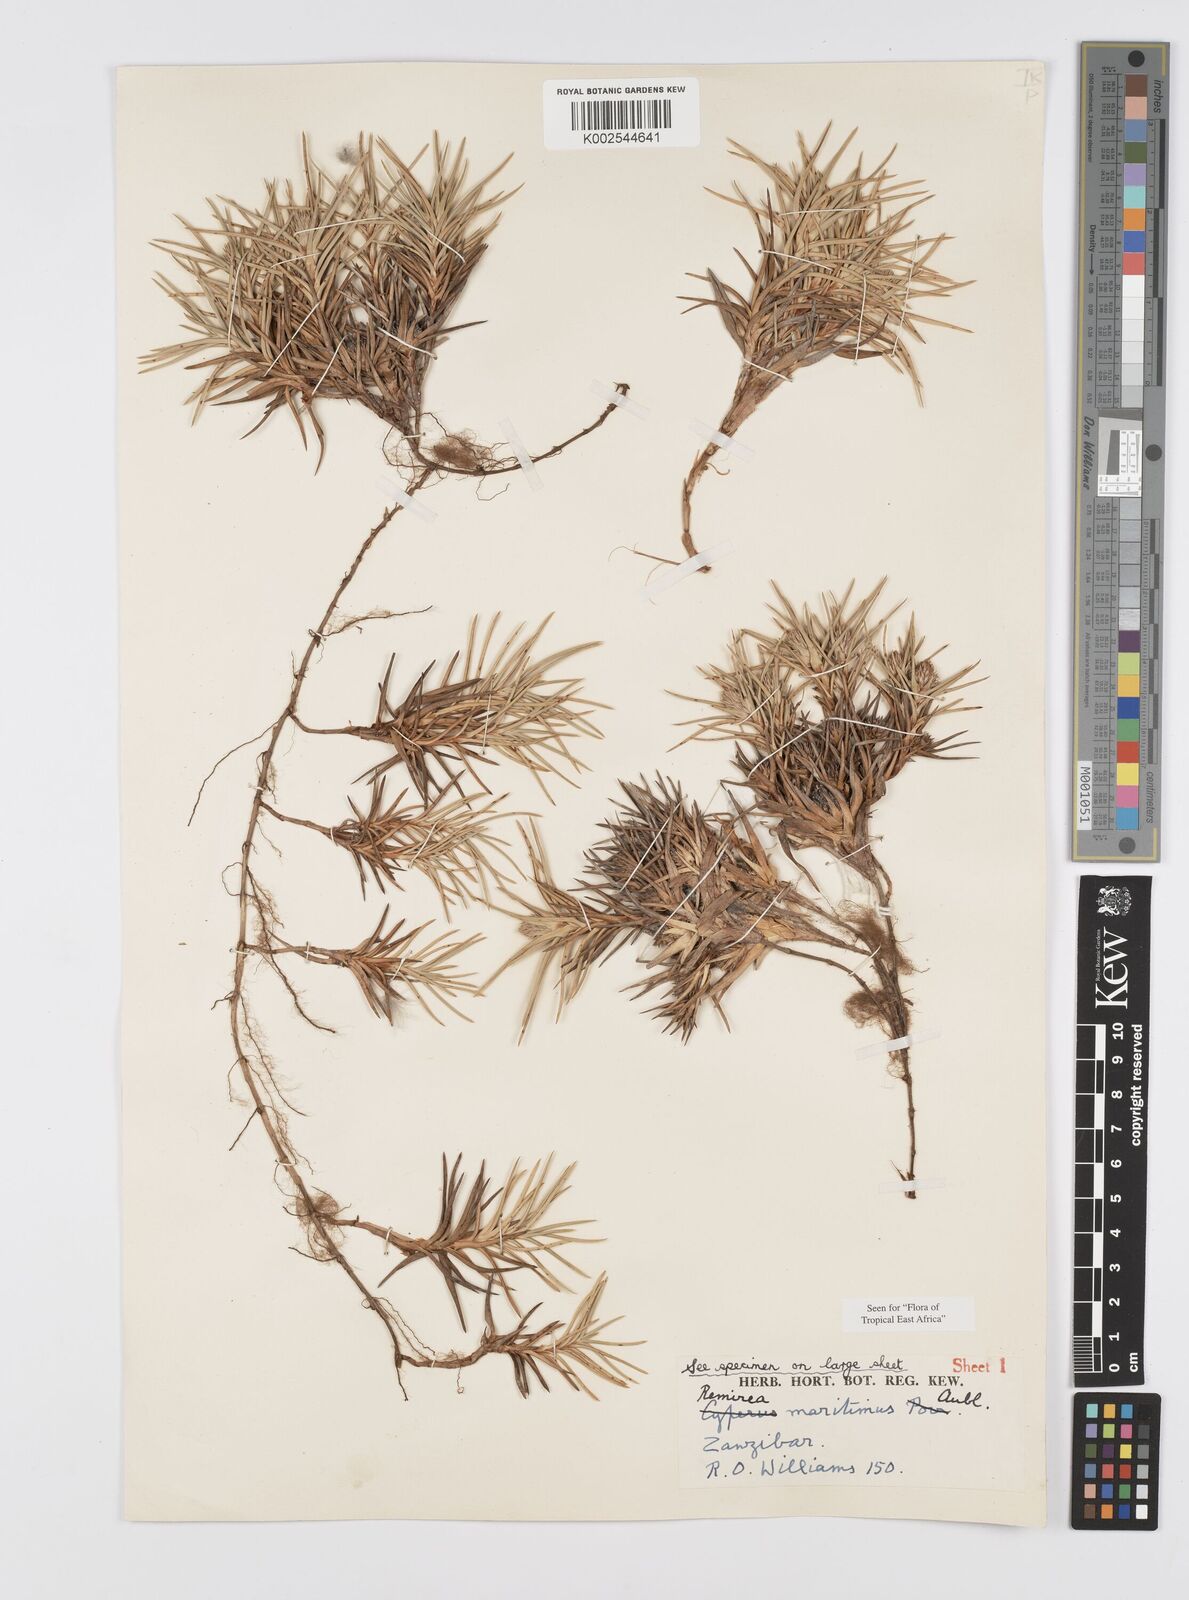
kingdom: Plantae
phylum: Tracheophyta
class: Liliopsida
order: Poales
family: Cyperaceae
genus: Cyperus
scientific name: Cyperus
